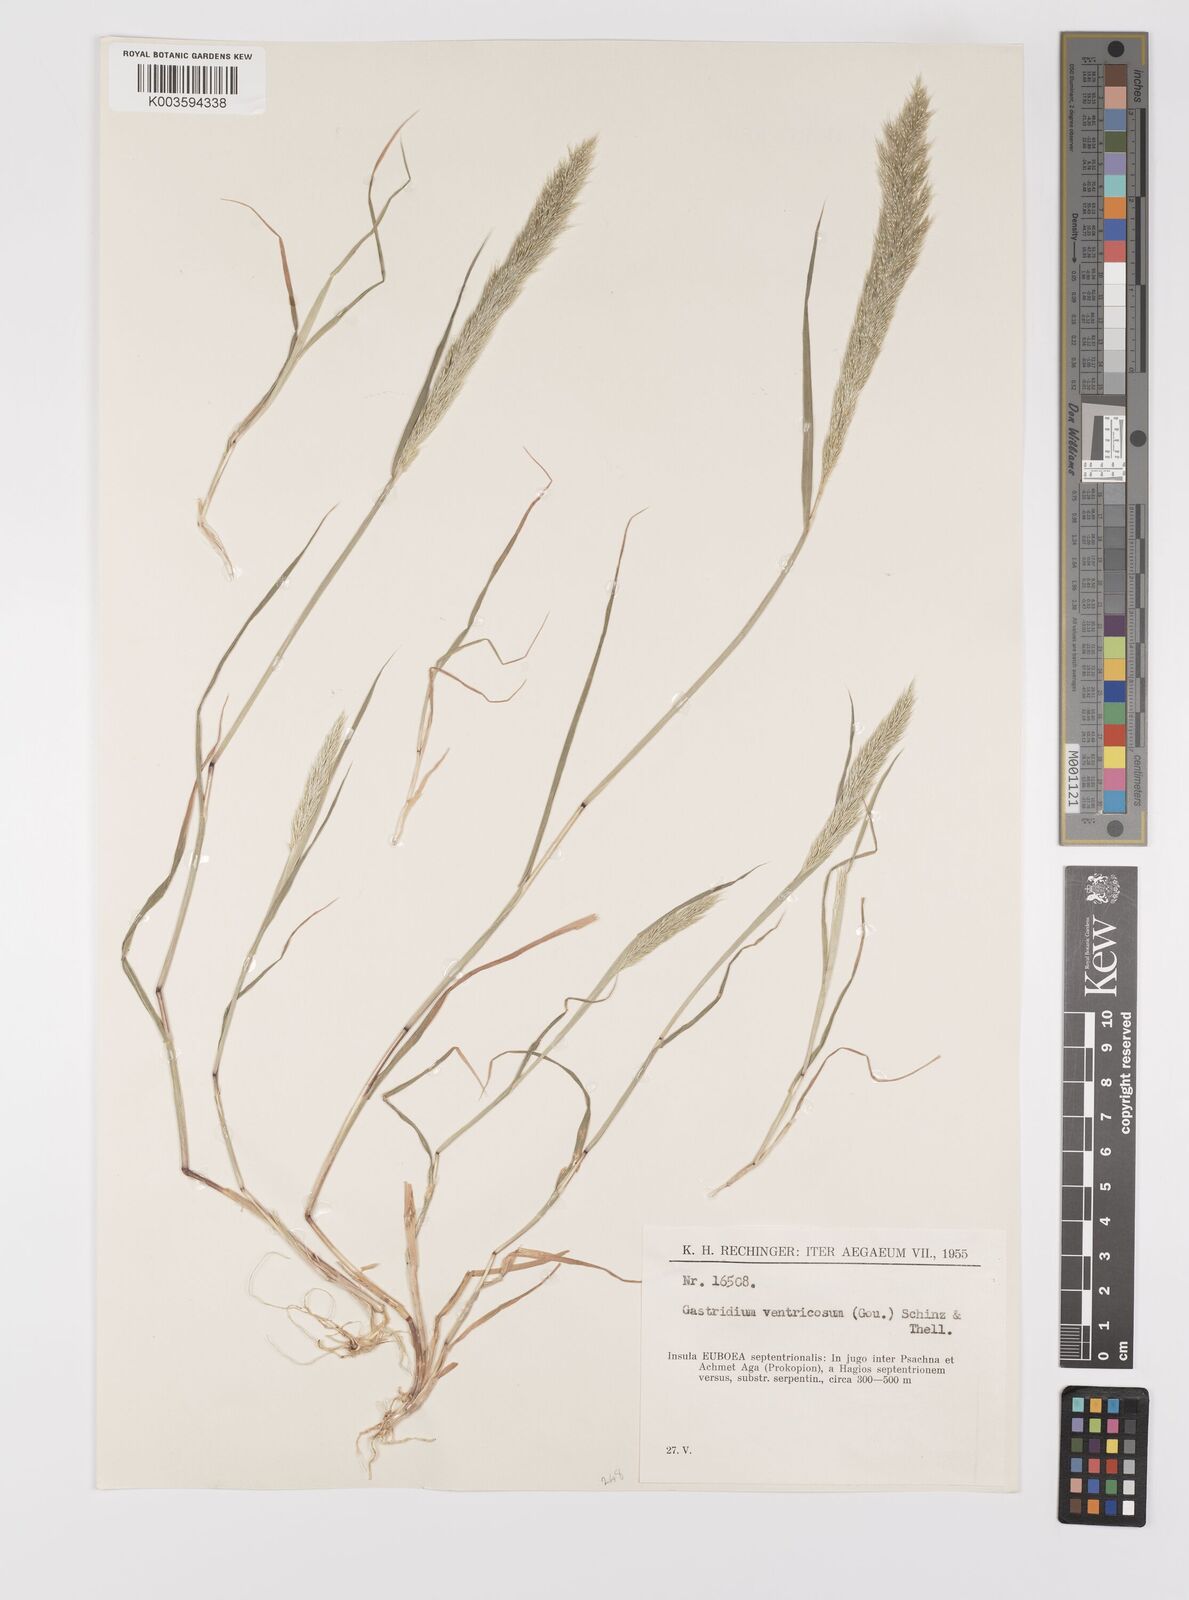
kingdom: Plantae
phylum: Tracheophyta
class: Liliopsida
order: Poales
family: Poaceae
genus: Gastridium
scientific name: Gastridium ventricosum
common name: Nit-grass
